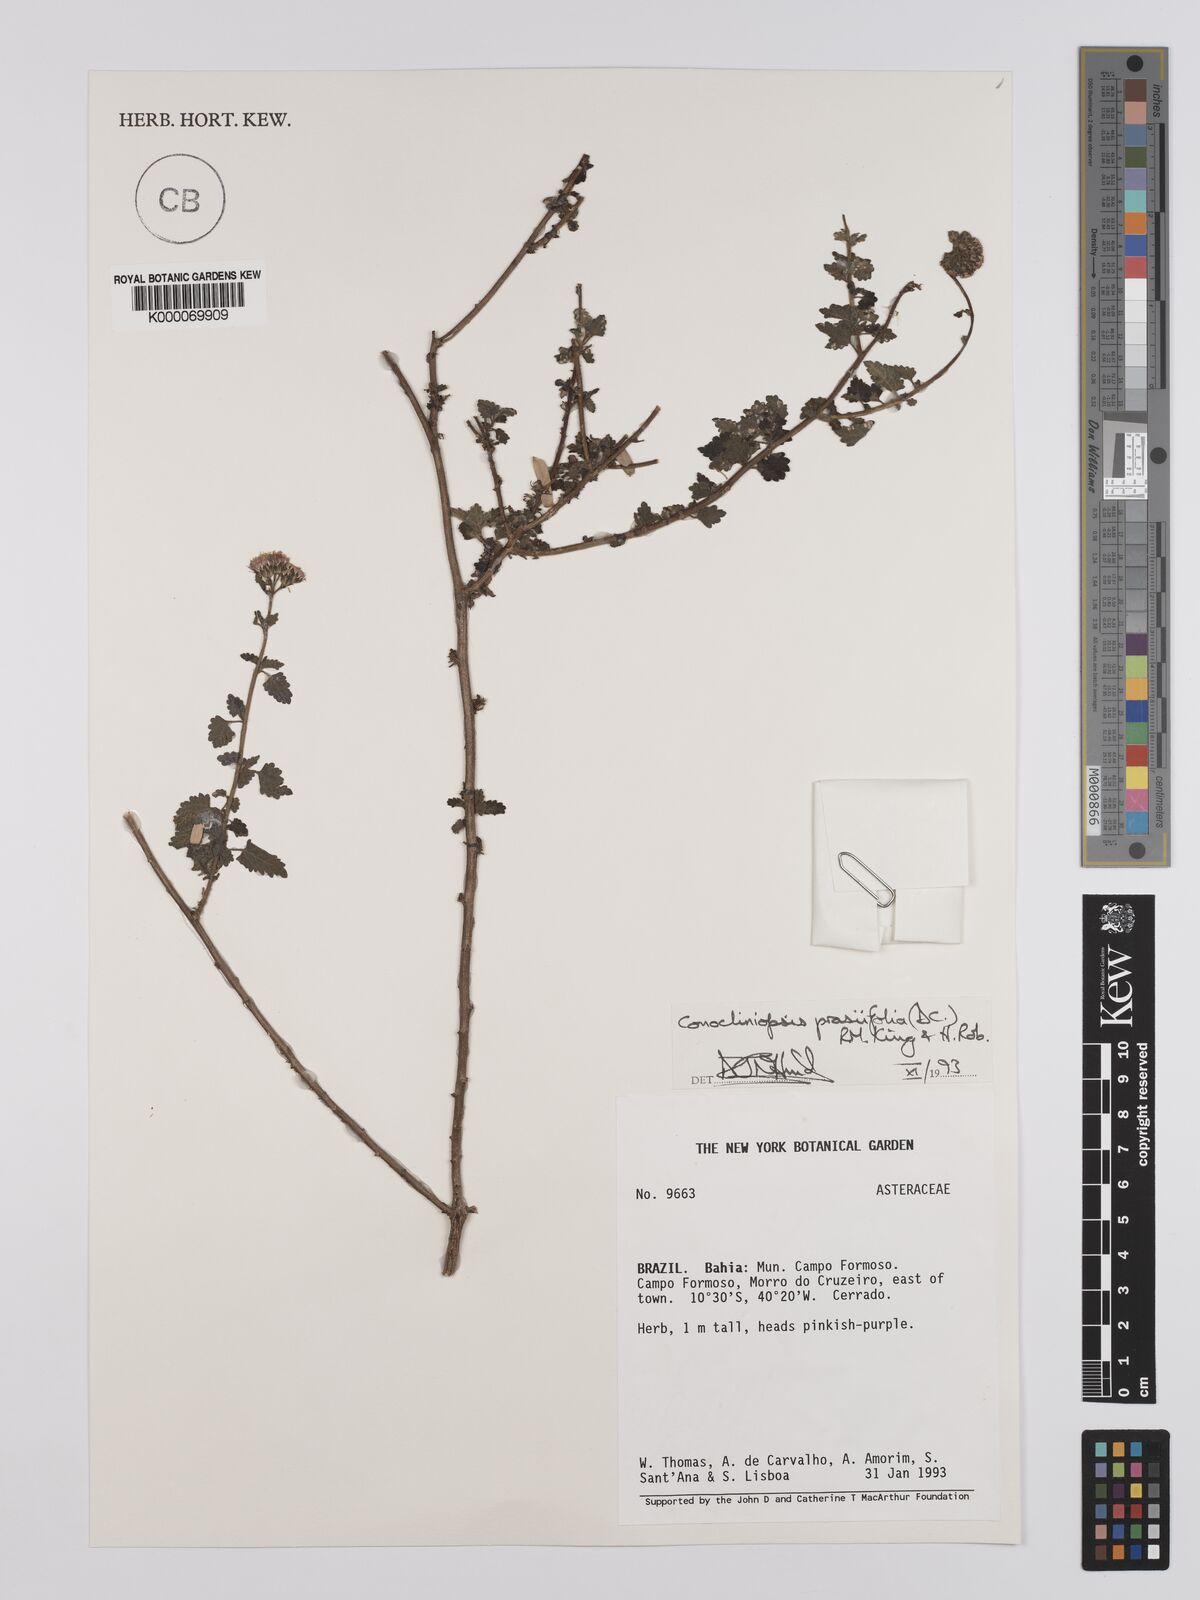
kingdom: Plantae
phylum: Tracheophyta
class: Magnoliopsida
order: Asterales
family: Asteraceae
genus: Conocliniopsis
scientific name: Conocliniopsis grossedentata
